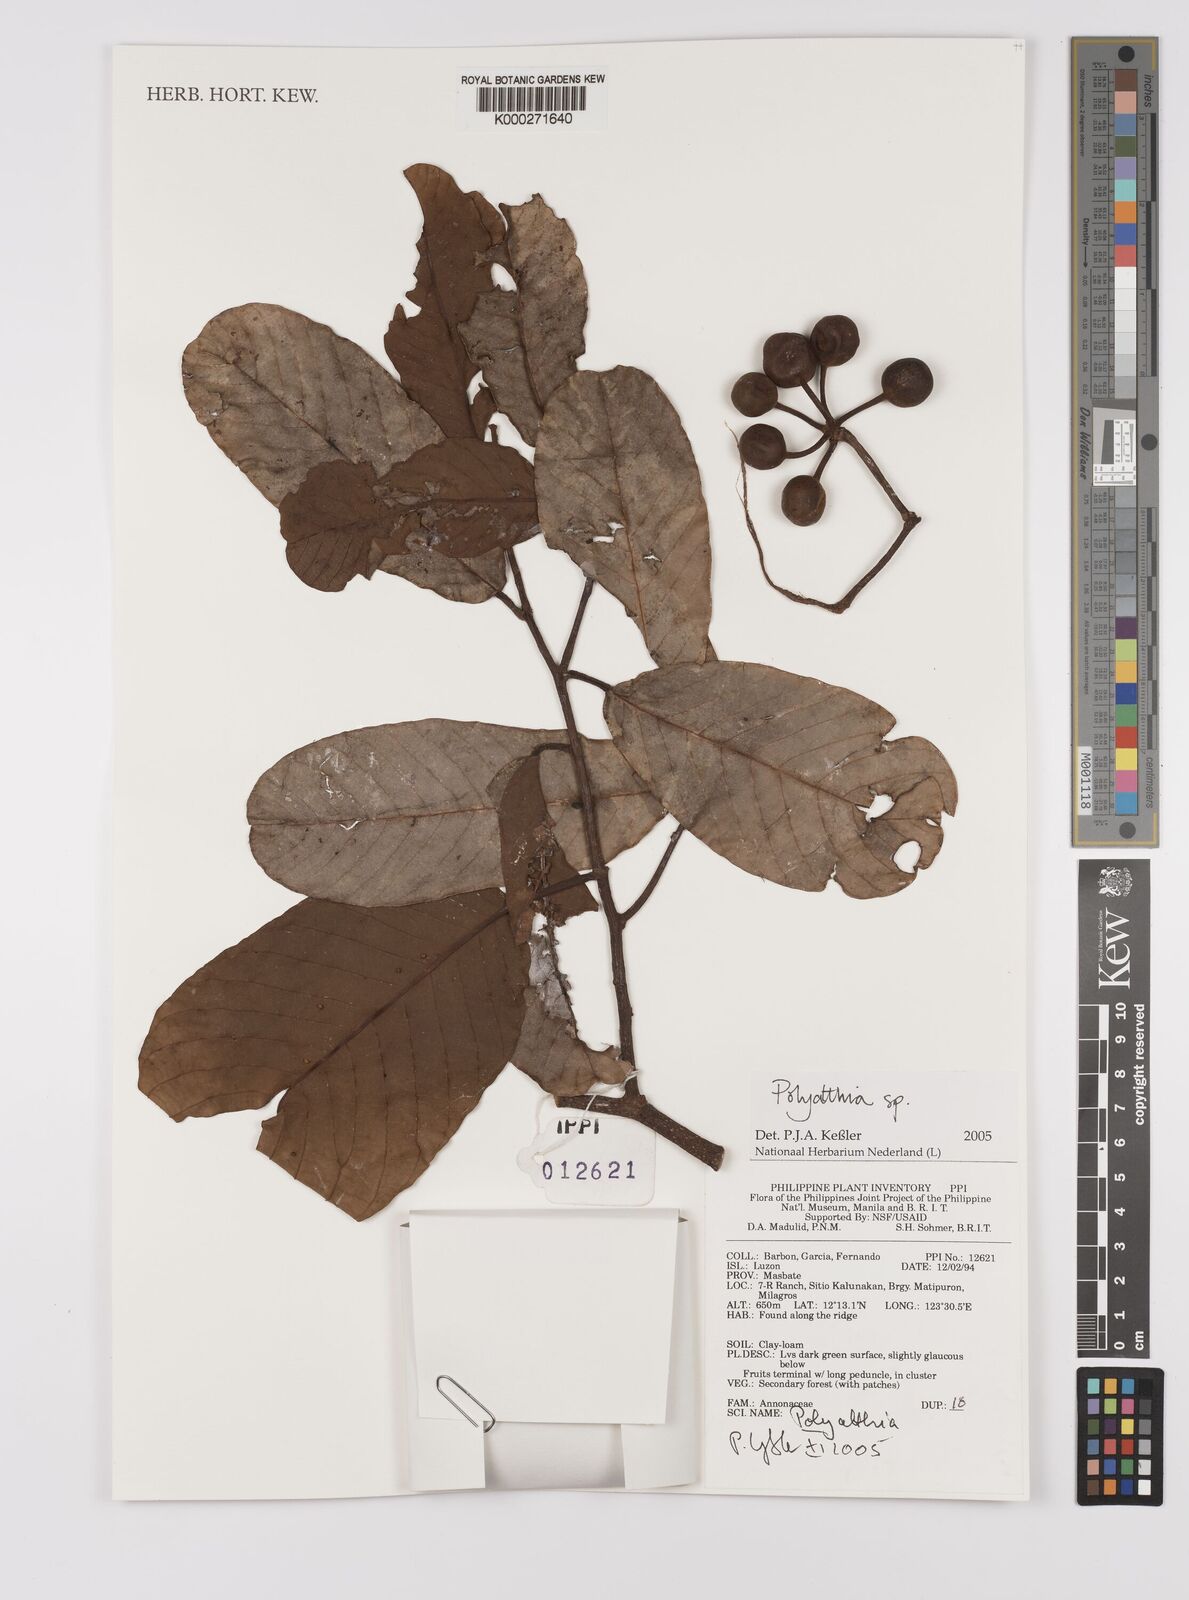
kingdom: Plantae
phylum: Tracheophyta
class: Magnoliopsida
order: Magnoliales
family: Annonaceae
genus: Polyalthia
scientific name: Polyalthia
